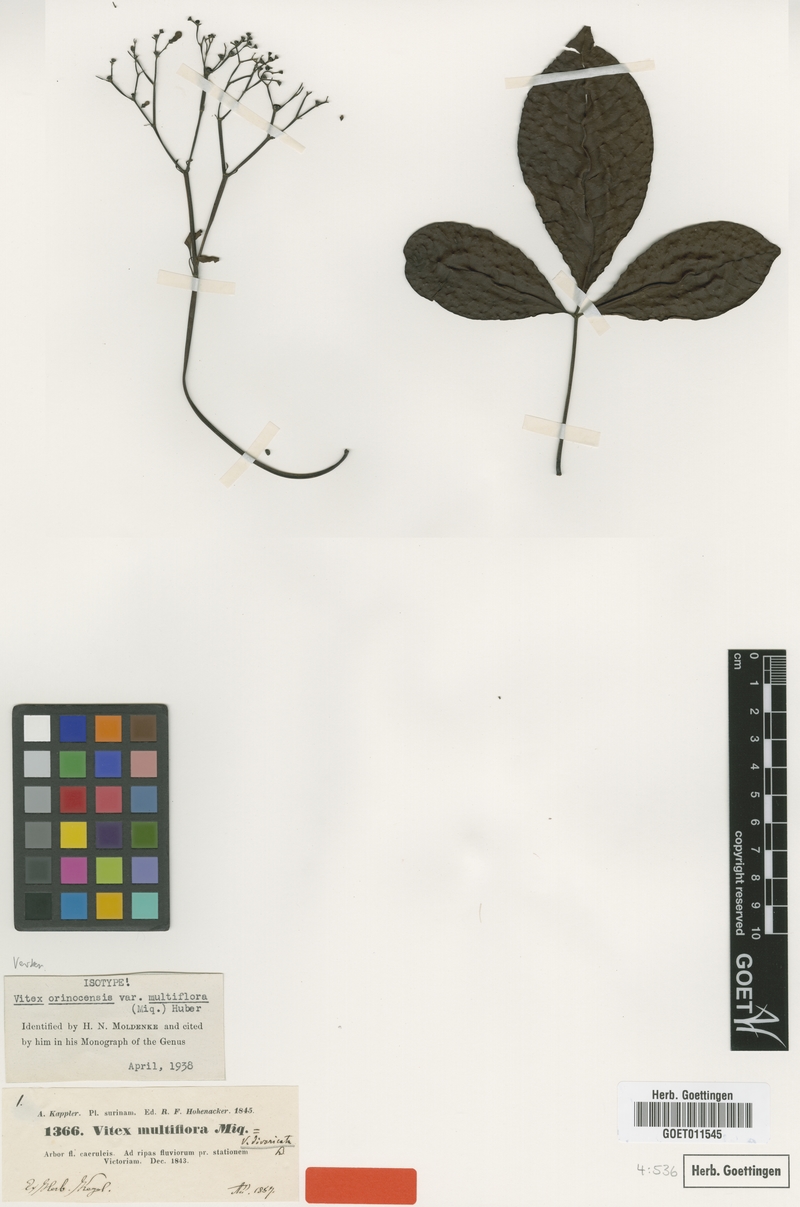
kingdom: Plantae
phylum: Tracheophyta
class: Magnoliopsida
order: Lamiales
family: Lamiaceae
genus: Vitex
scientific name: Vitex orinocensis
